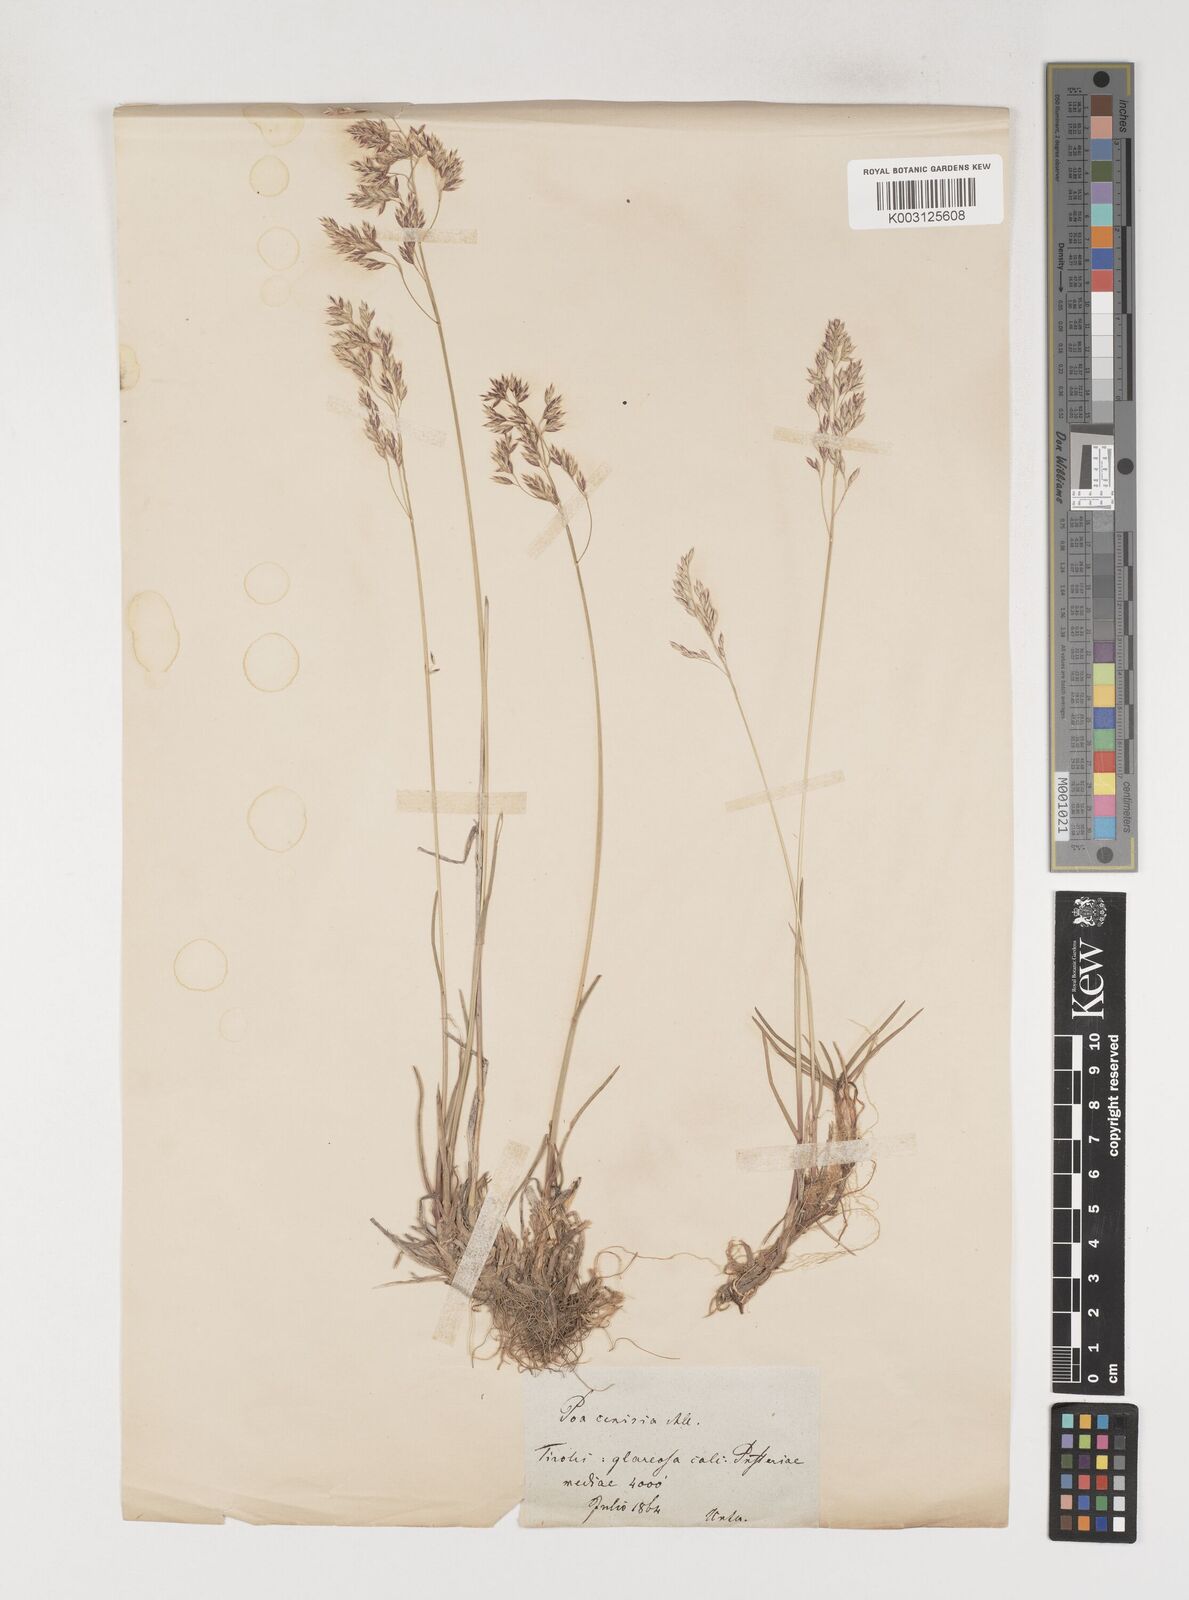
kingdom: Plantae
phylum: Tracheophyta
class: Liliopsida
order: Poales
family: Poaceae
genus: Poa
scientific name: Poa cenisia
